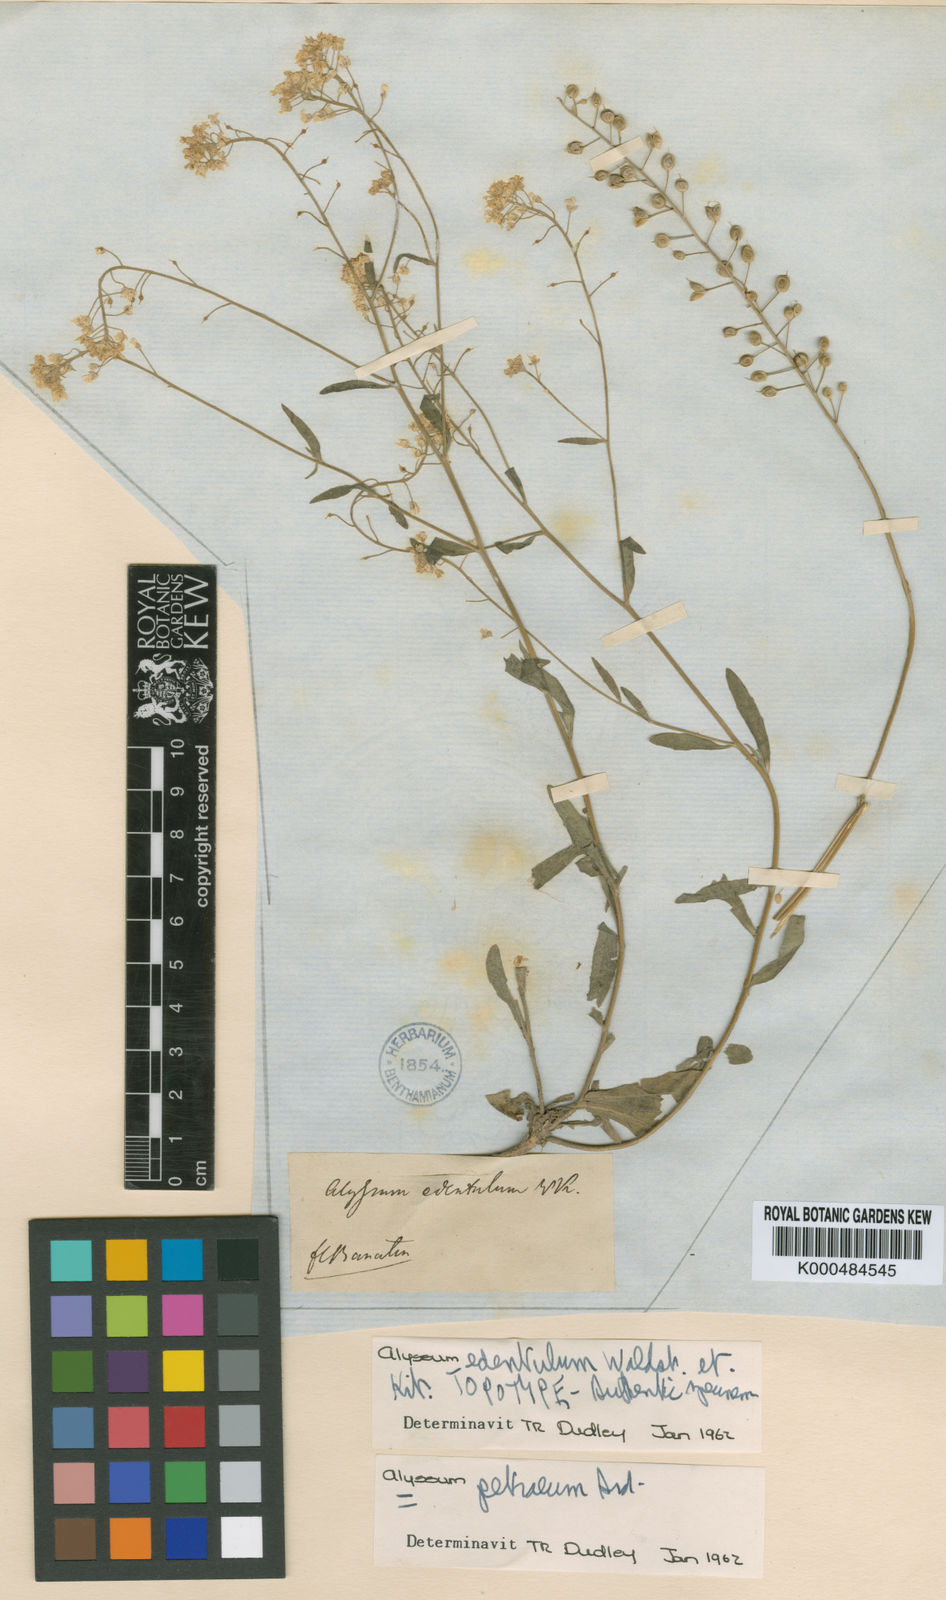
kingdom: Plantae
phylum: Tracheophyta
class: Magnoliopsida
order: Brassicales
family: Brassicaceae
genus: Aurinia
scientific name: Aurinia petraea
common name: Goldentuft
